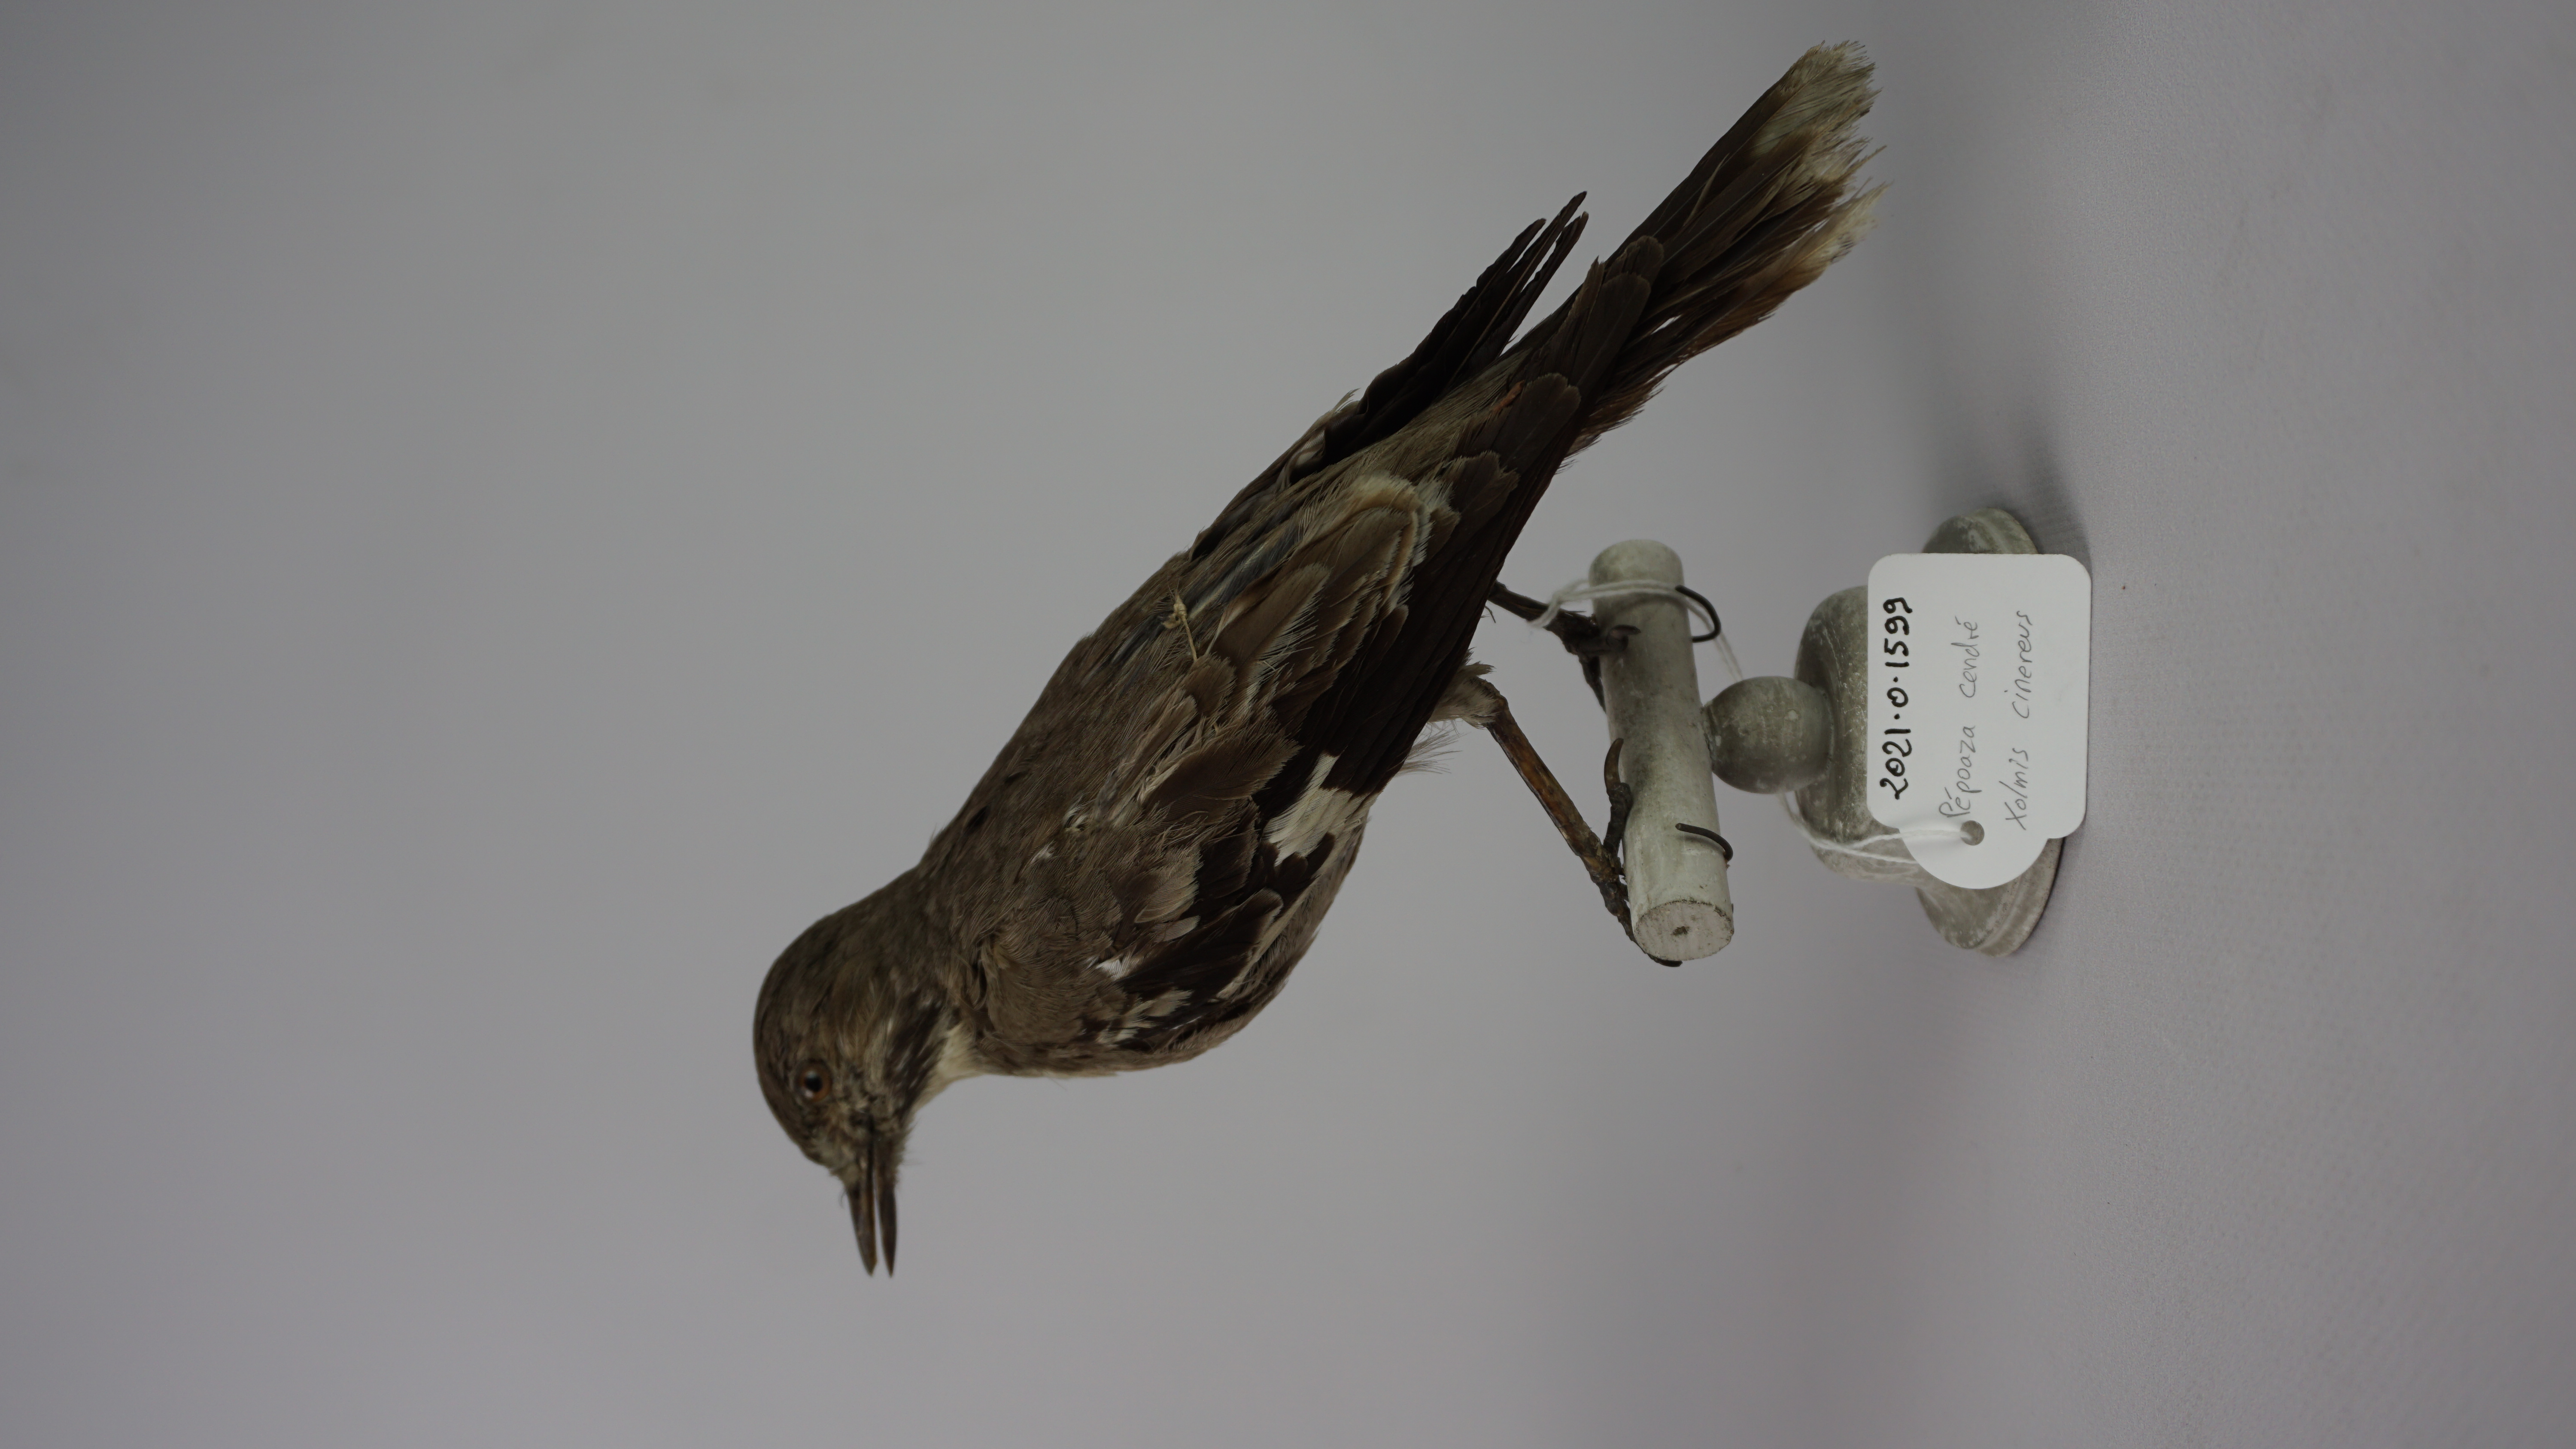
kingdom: Animalia
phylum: Chordata
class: Aves
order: Passeriformes
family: Tyrannidae
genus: Xolmis
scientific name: Xolmis cinereus
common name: Grey monjita
